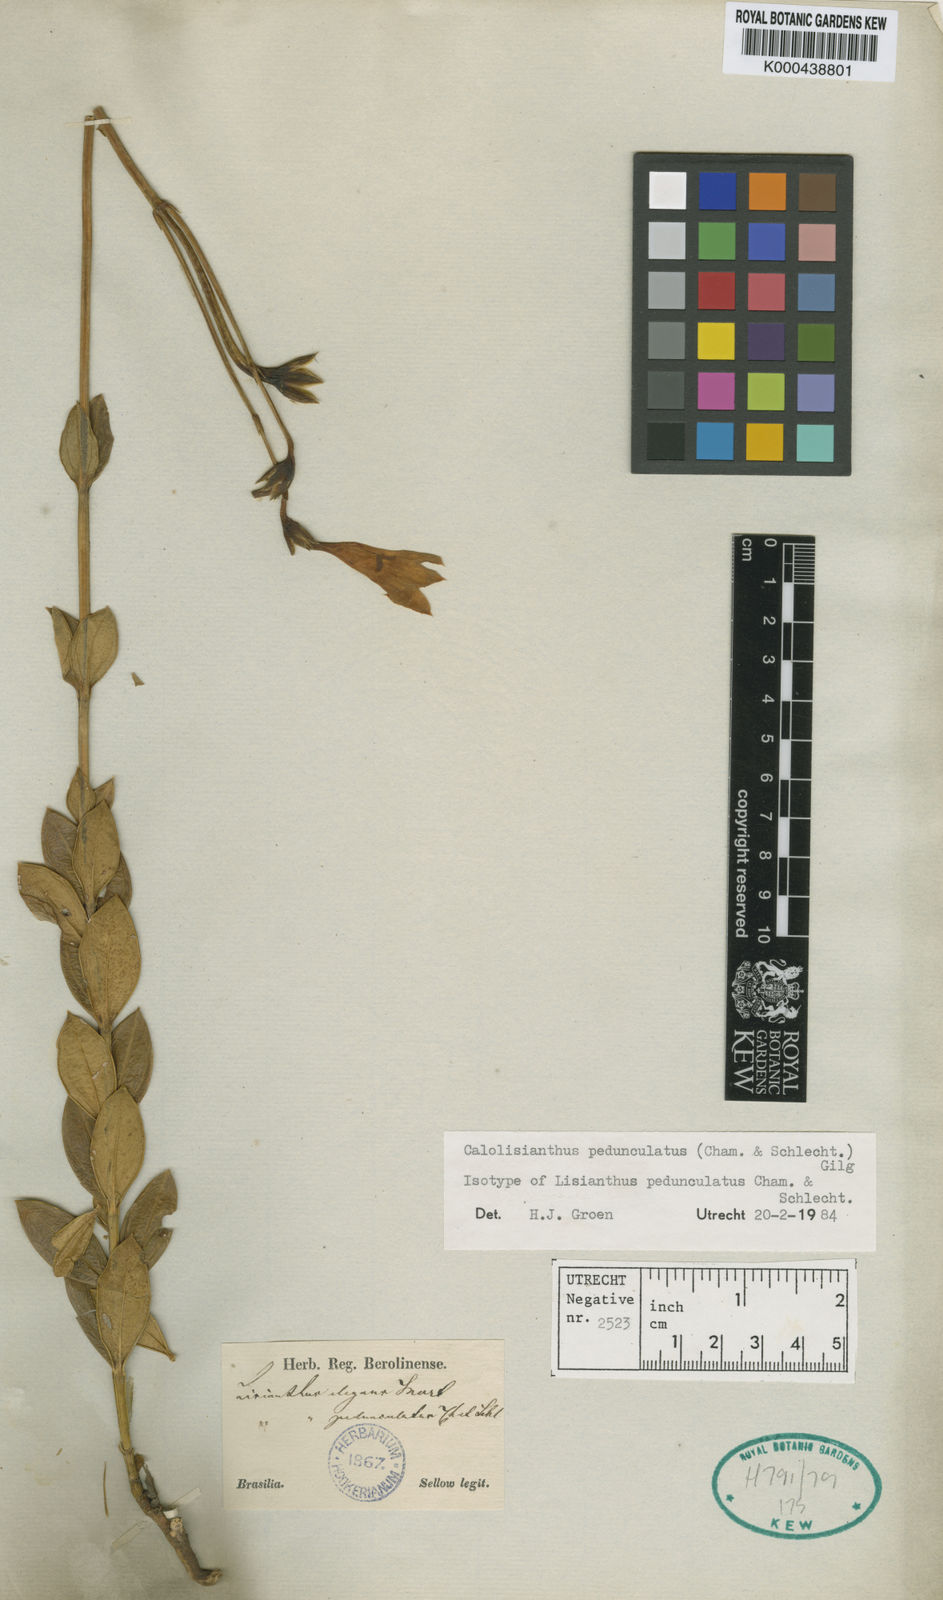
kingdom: Plantae
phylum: Tracheophyta
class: Magnoliopsida
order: Gentianales
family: Gentianaceae
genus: Calolisianthus
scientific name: Calolisianthus pedunculatus
